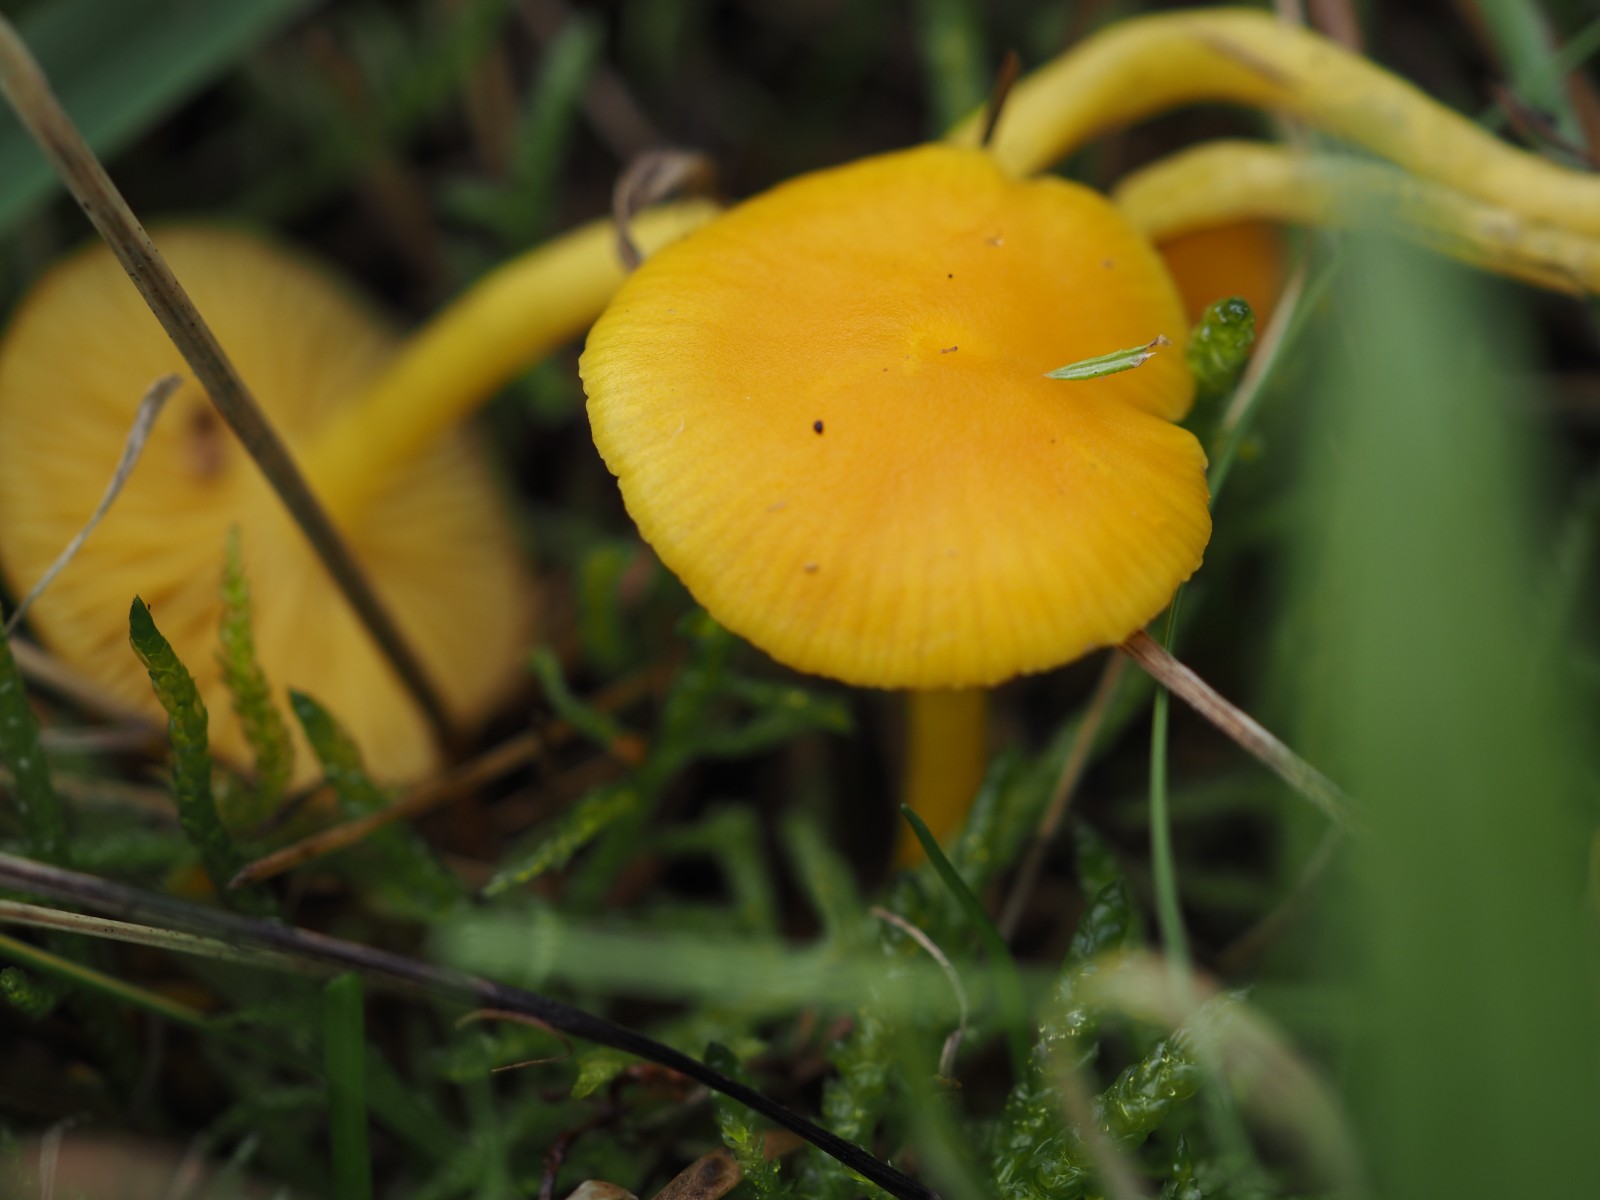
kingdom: Fungi
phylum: Basidiomycota
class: Agaricomycetes
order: Agaricales
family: Hygrophoraceae
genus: Hygrocybe
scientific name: Hygrocybe chlorophana
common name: gul vokshat
